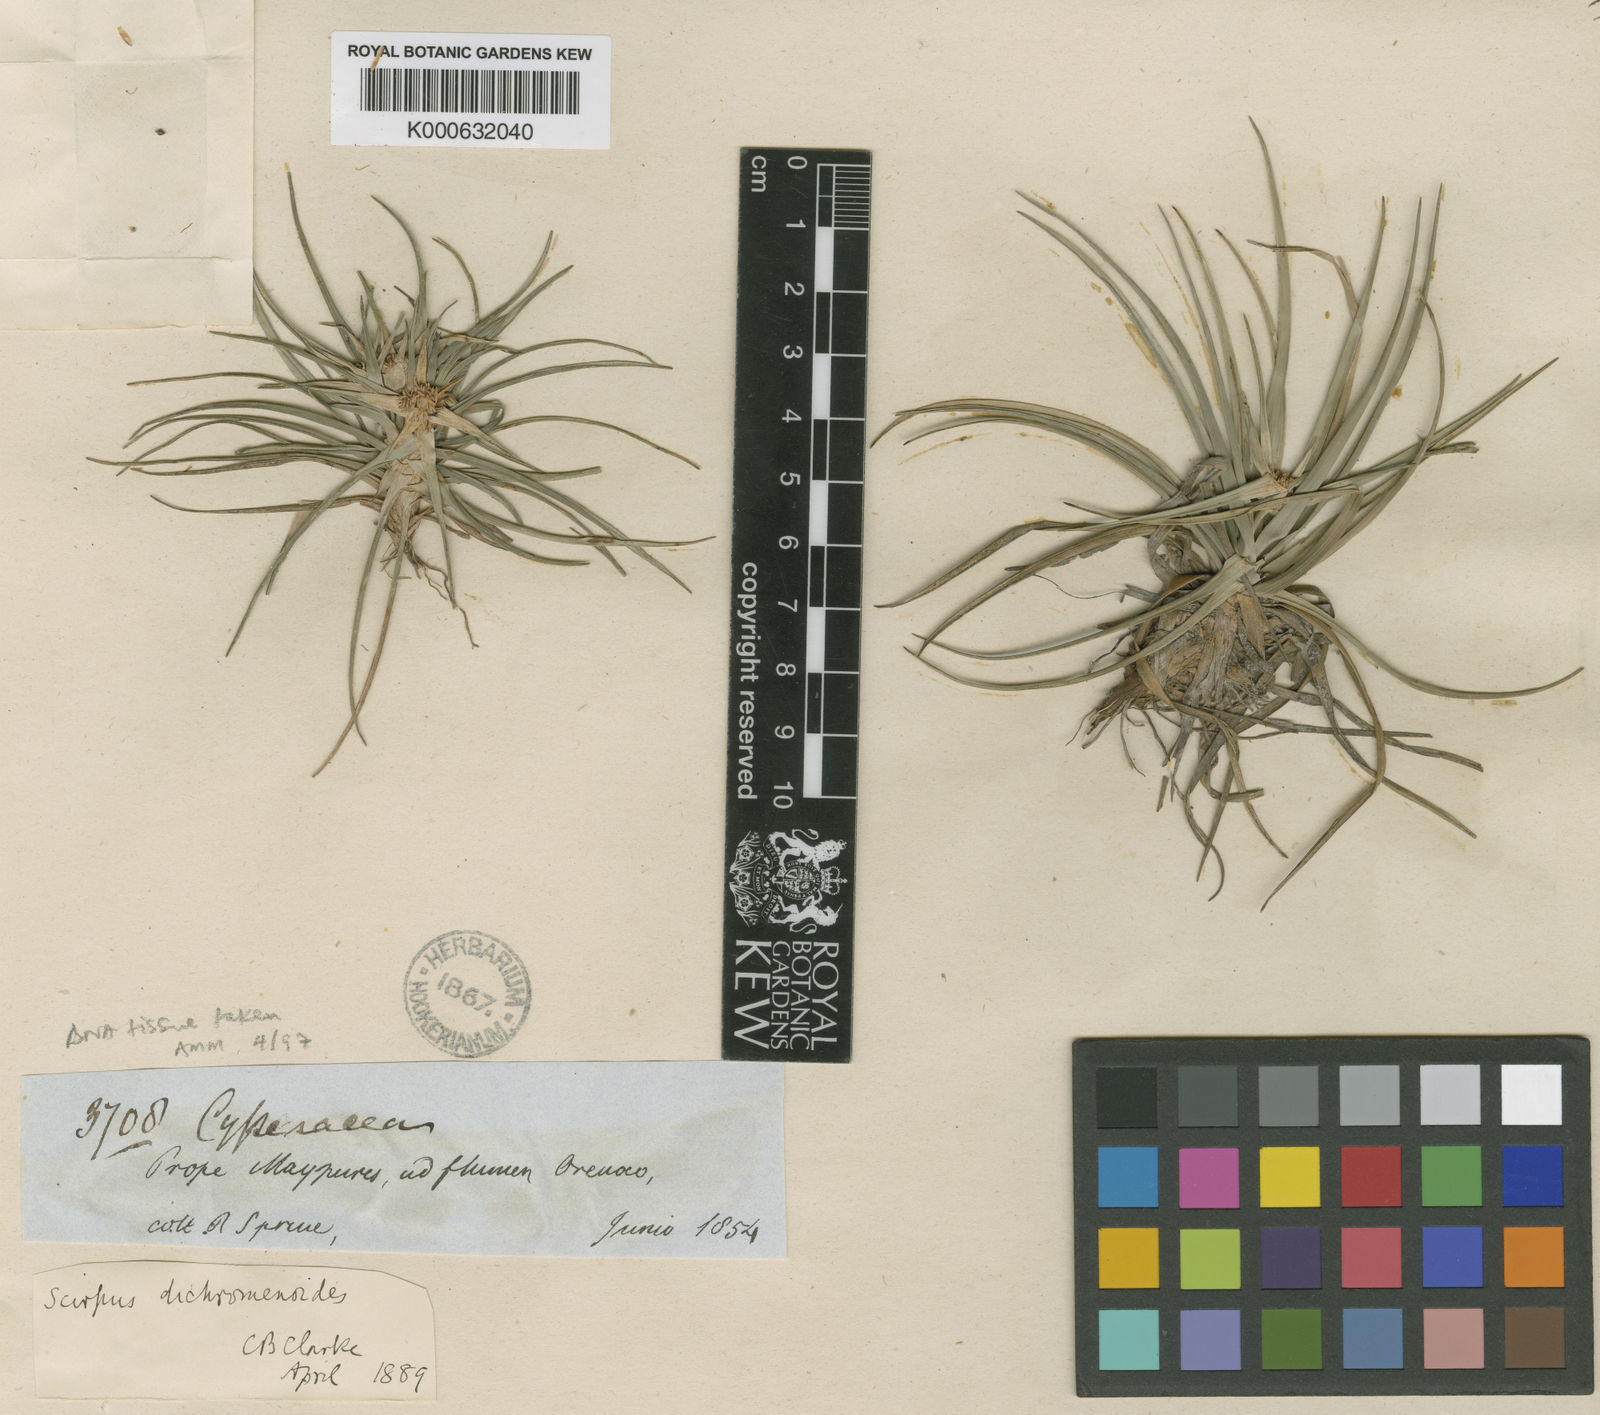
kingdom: Plantae
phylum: Tracheophyta
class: Liliopsida
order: Poales
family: Cyperaceae
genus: Isolepis
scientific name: Isolepis
